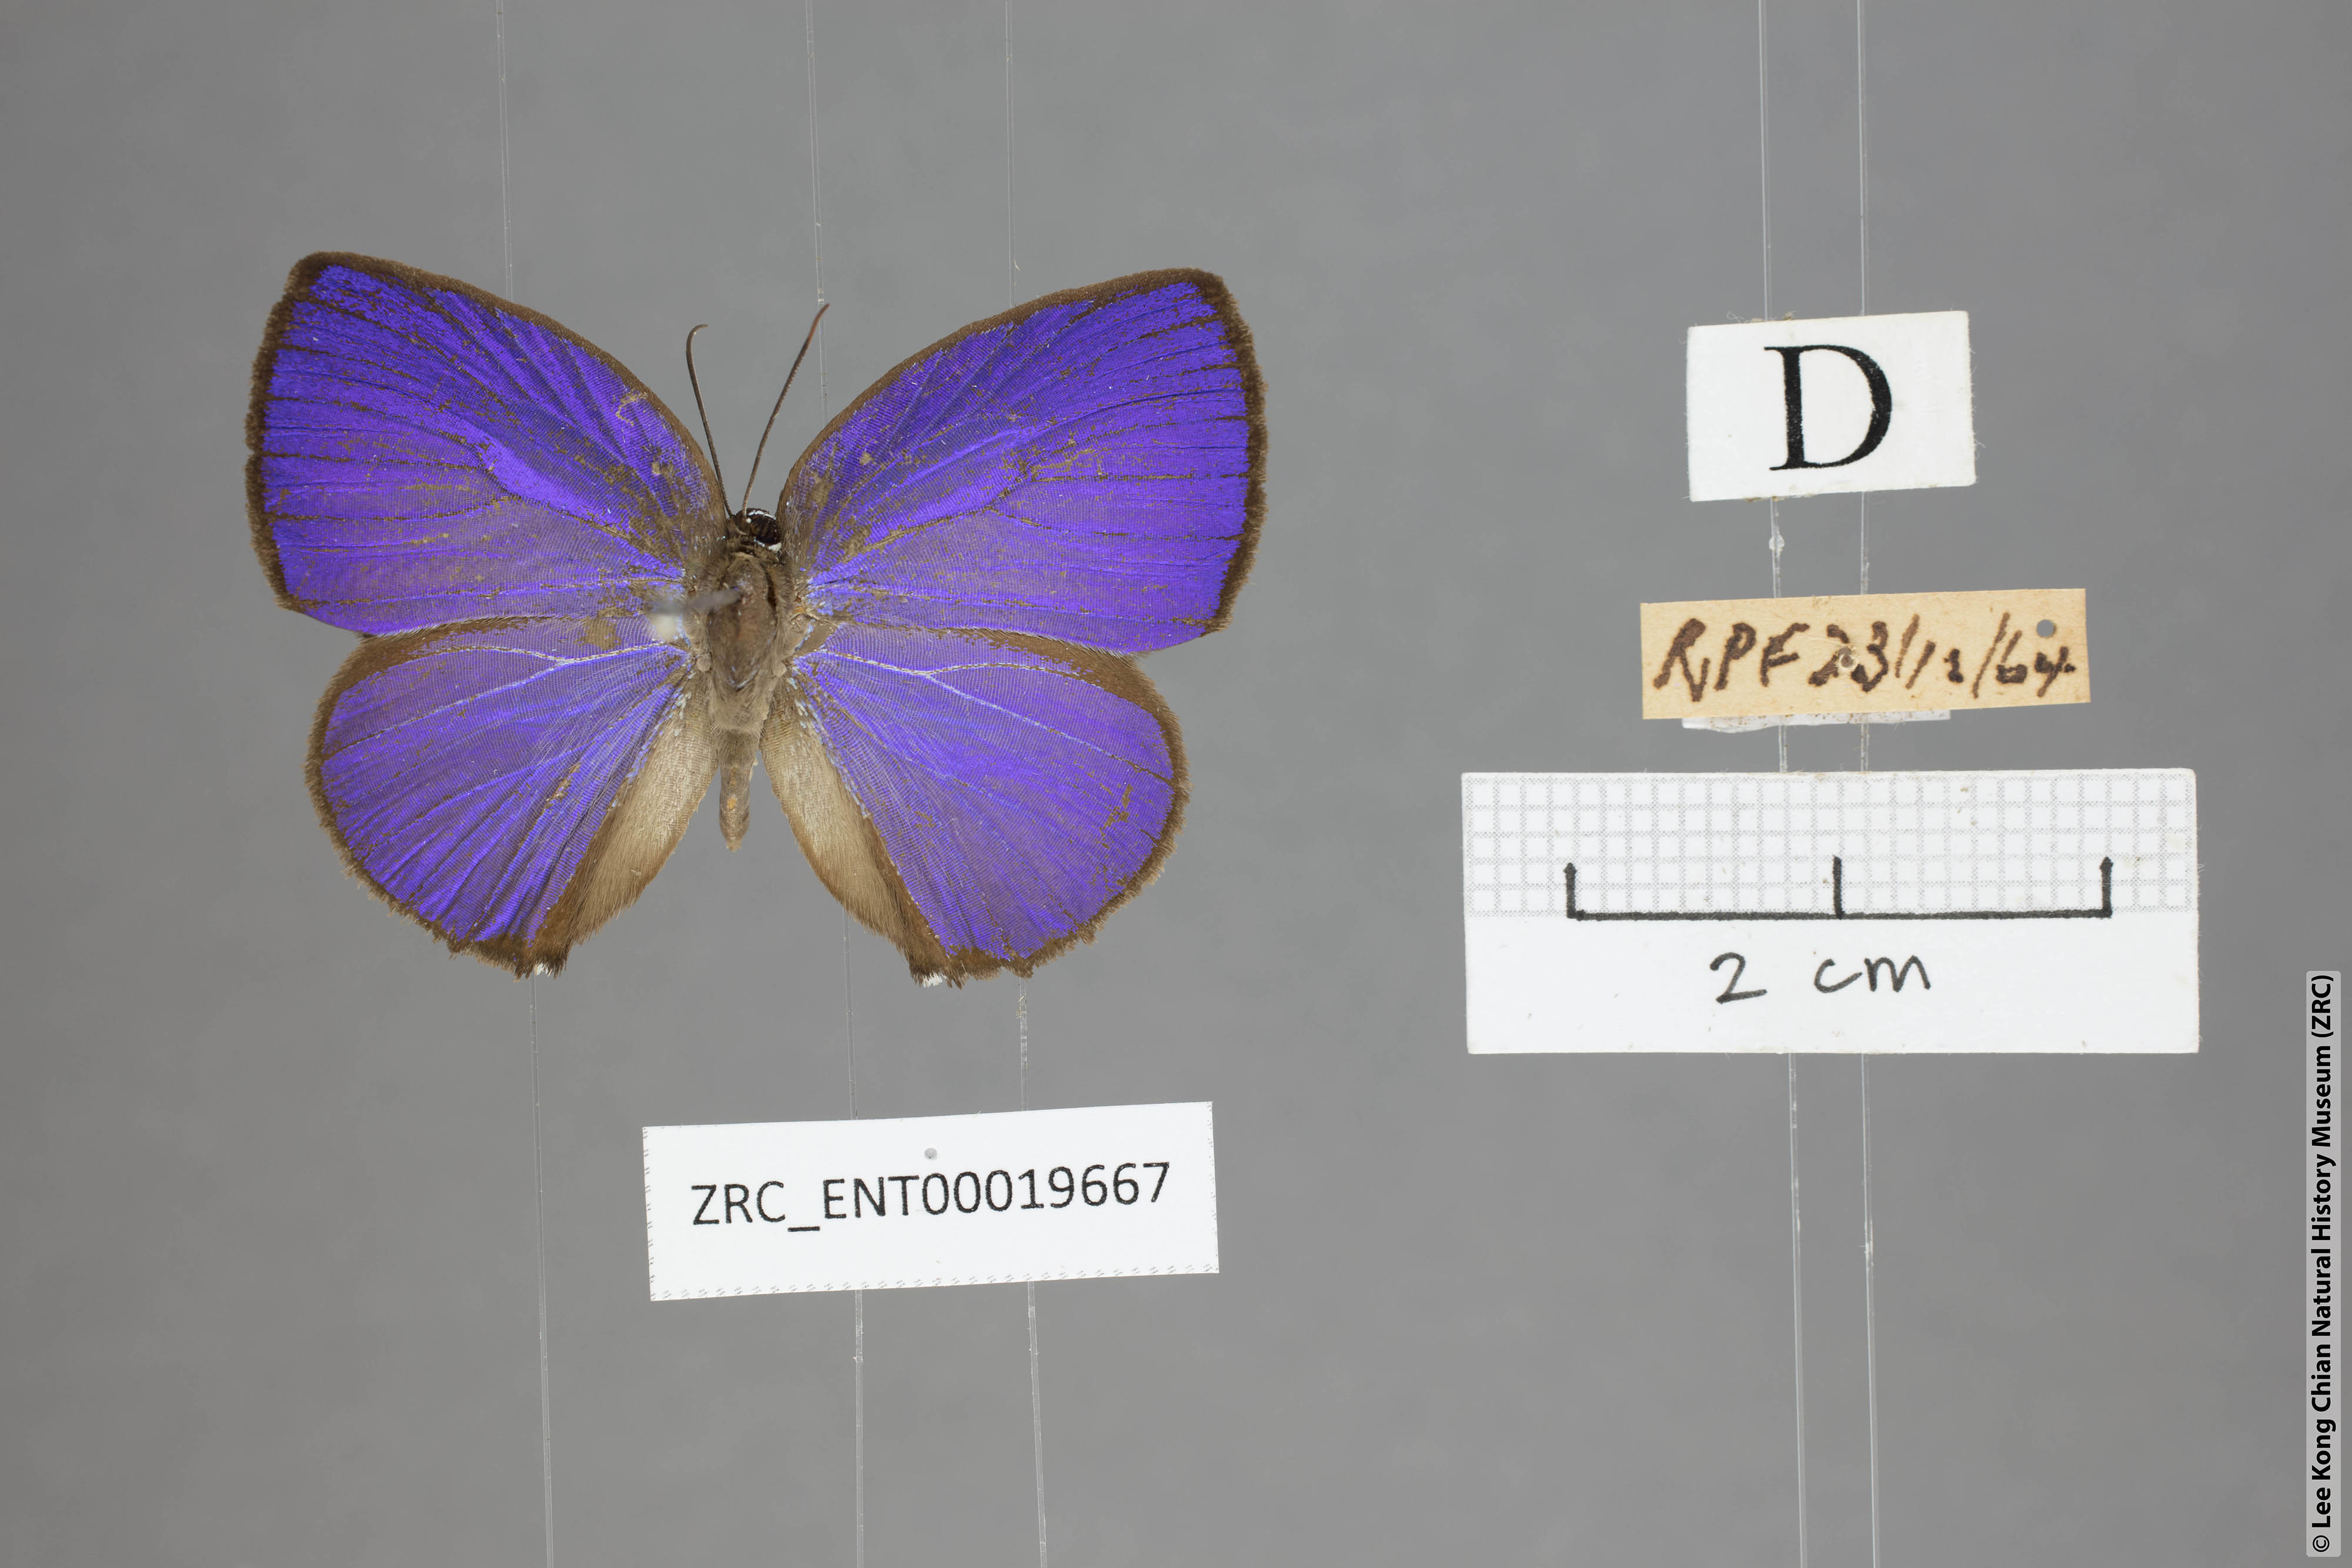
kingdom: Animalia
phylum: Arthropoda
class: Insecta
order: Lepidoptera
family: Lycaenidae
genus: Arhopala
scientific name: Arhopala moolaina
